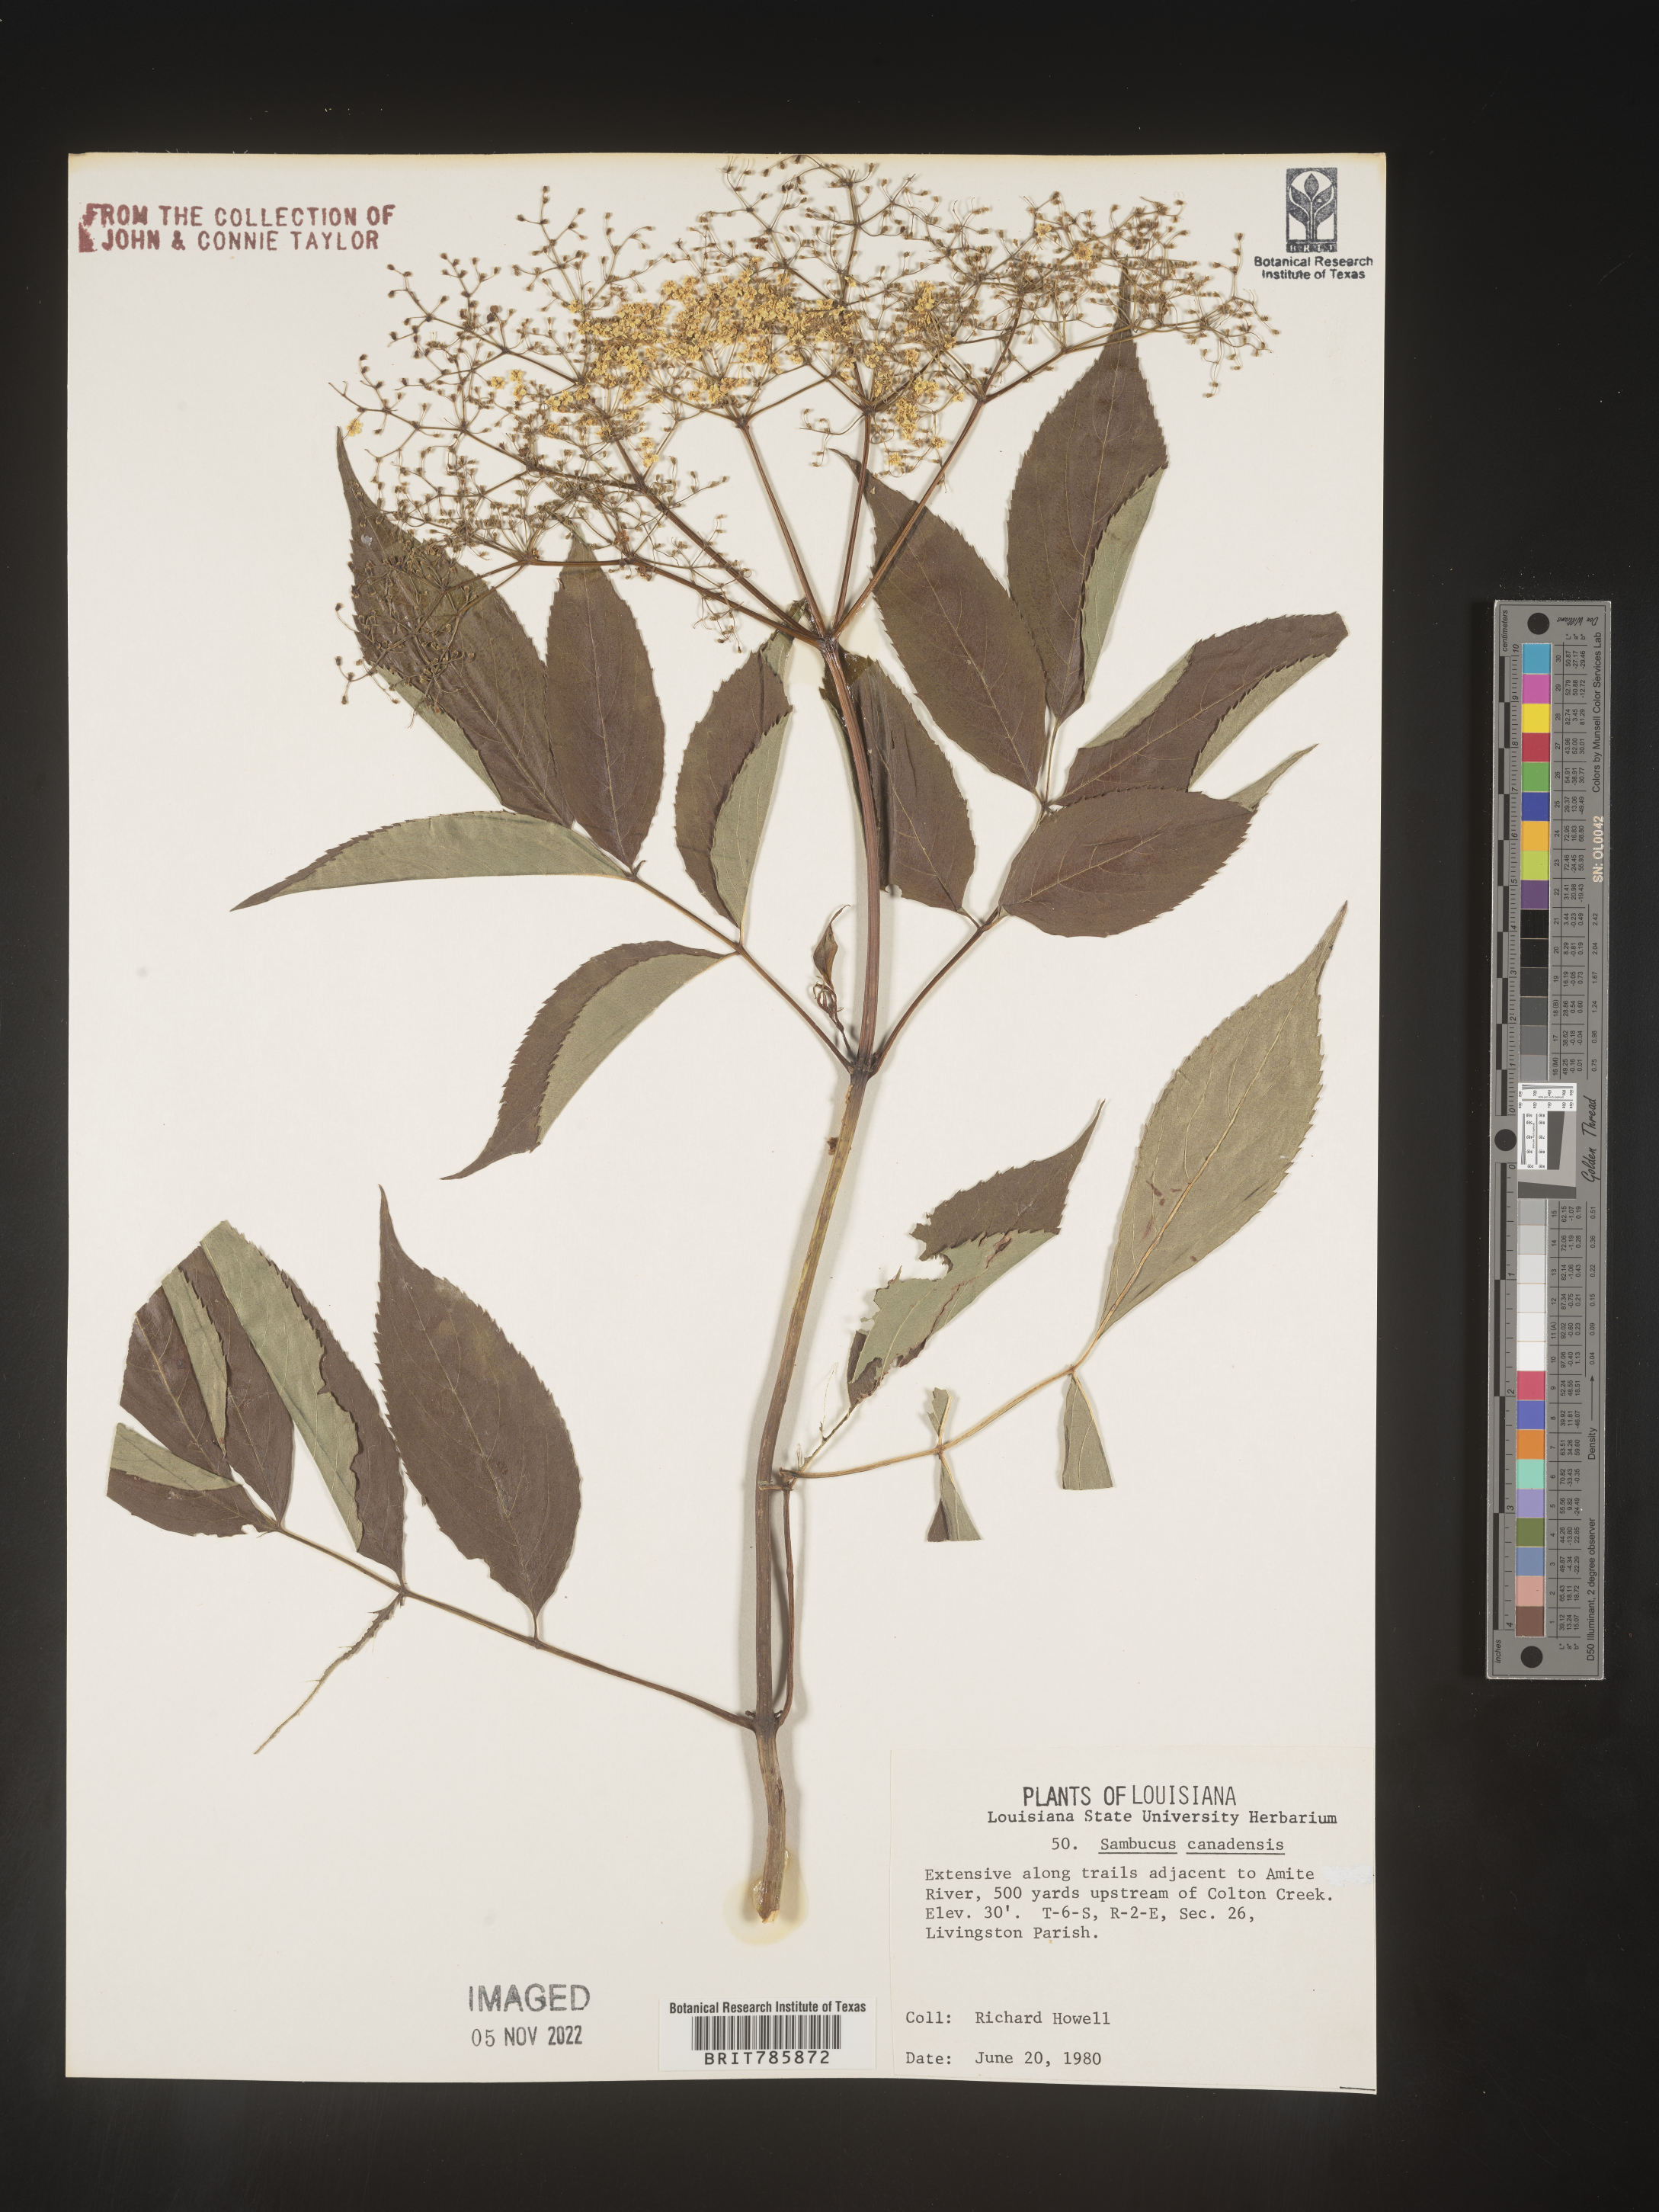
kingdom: Plantae
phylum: Tracheophyta
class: Magnoliopsida
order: Dipsacales
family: Viburnaceae
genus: Sambucus
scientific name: Sambucus nigra
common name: Elder
